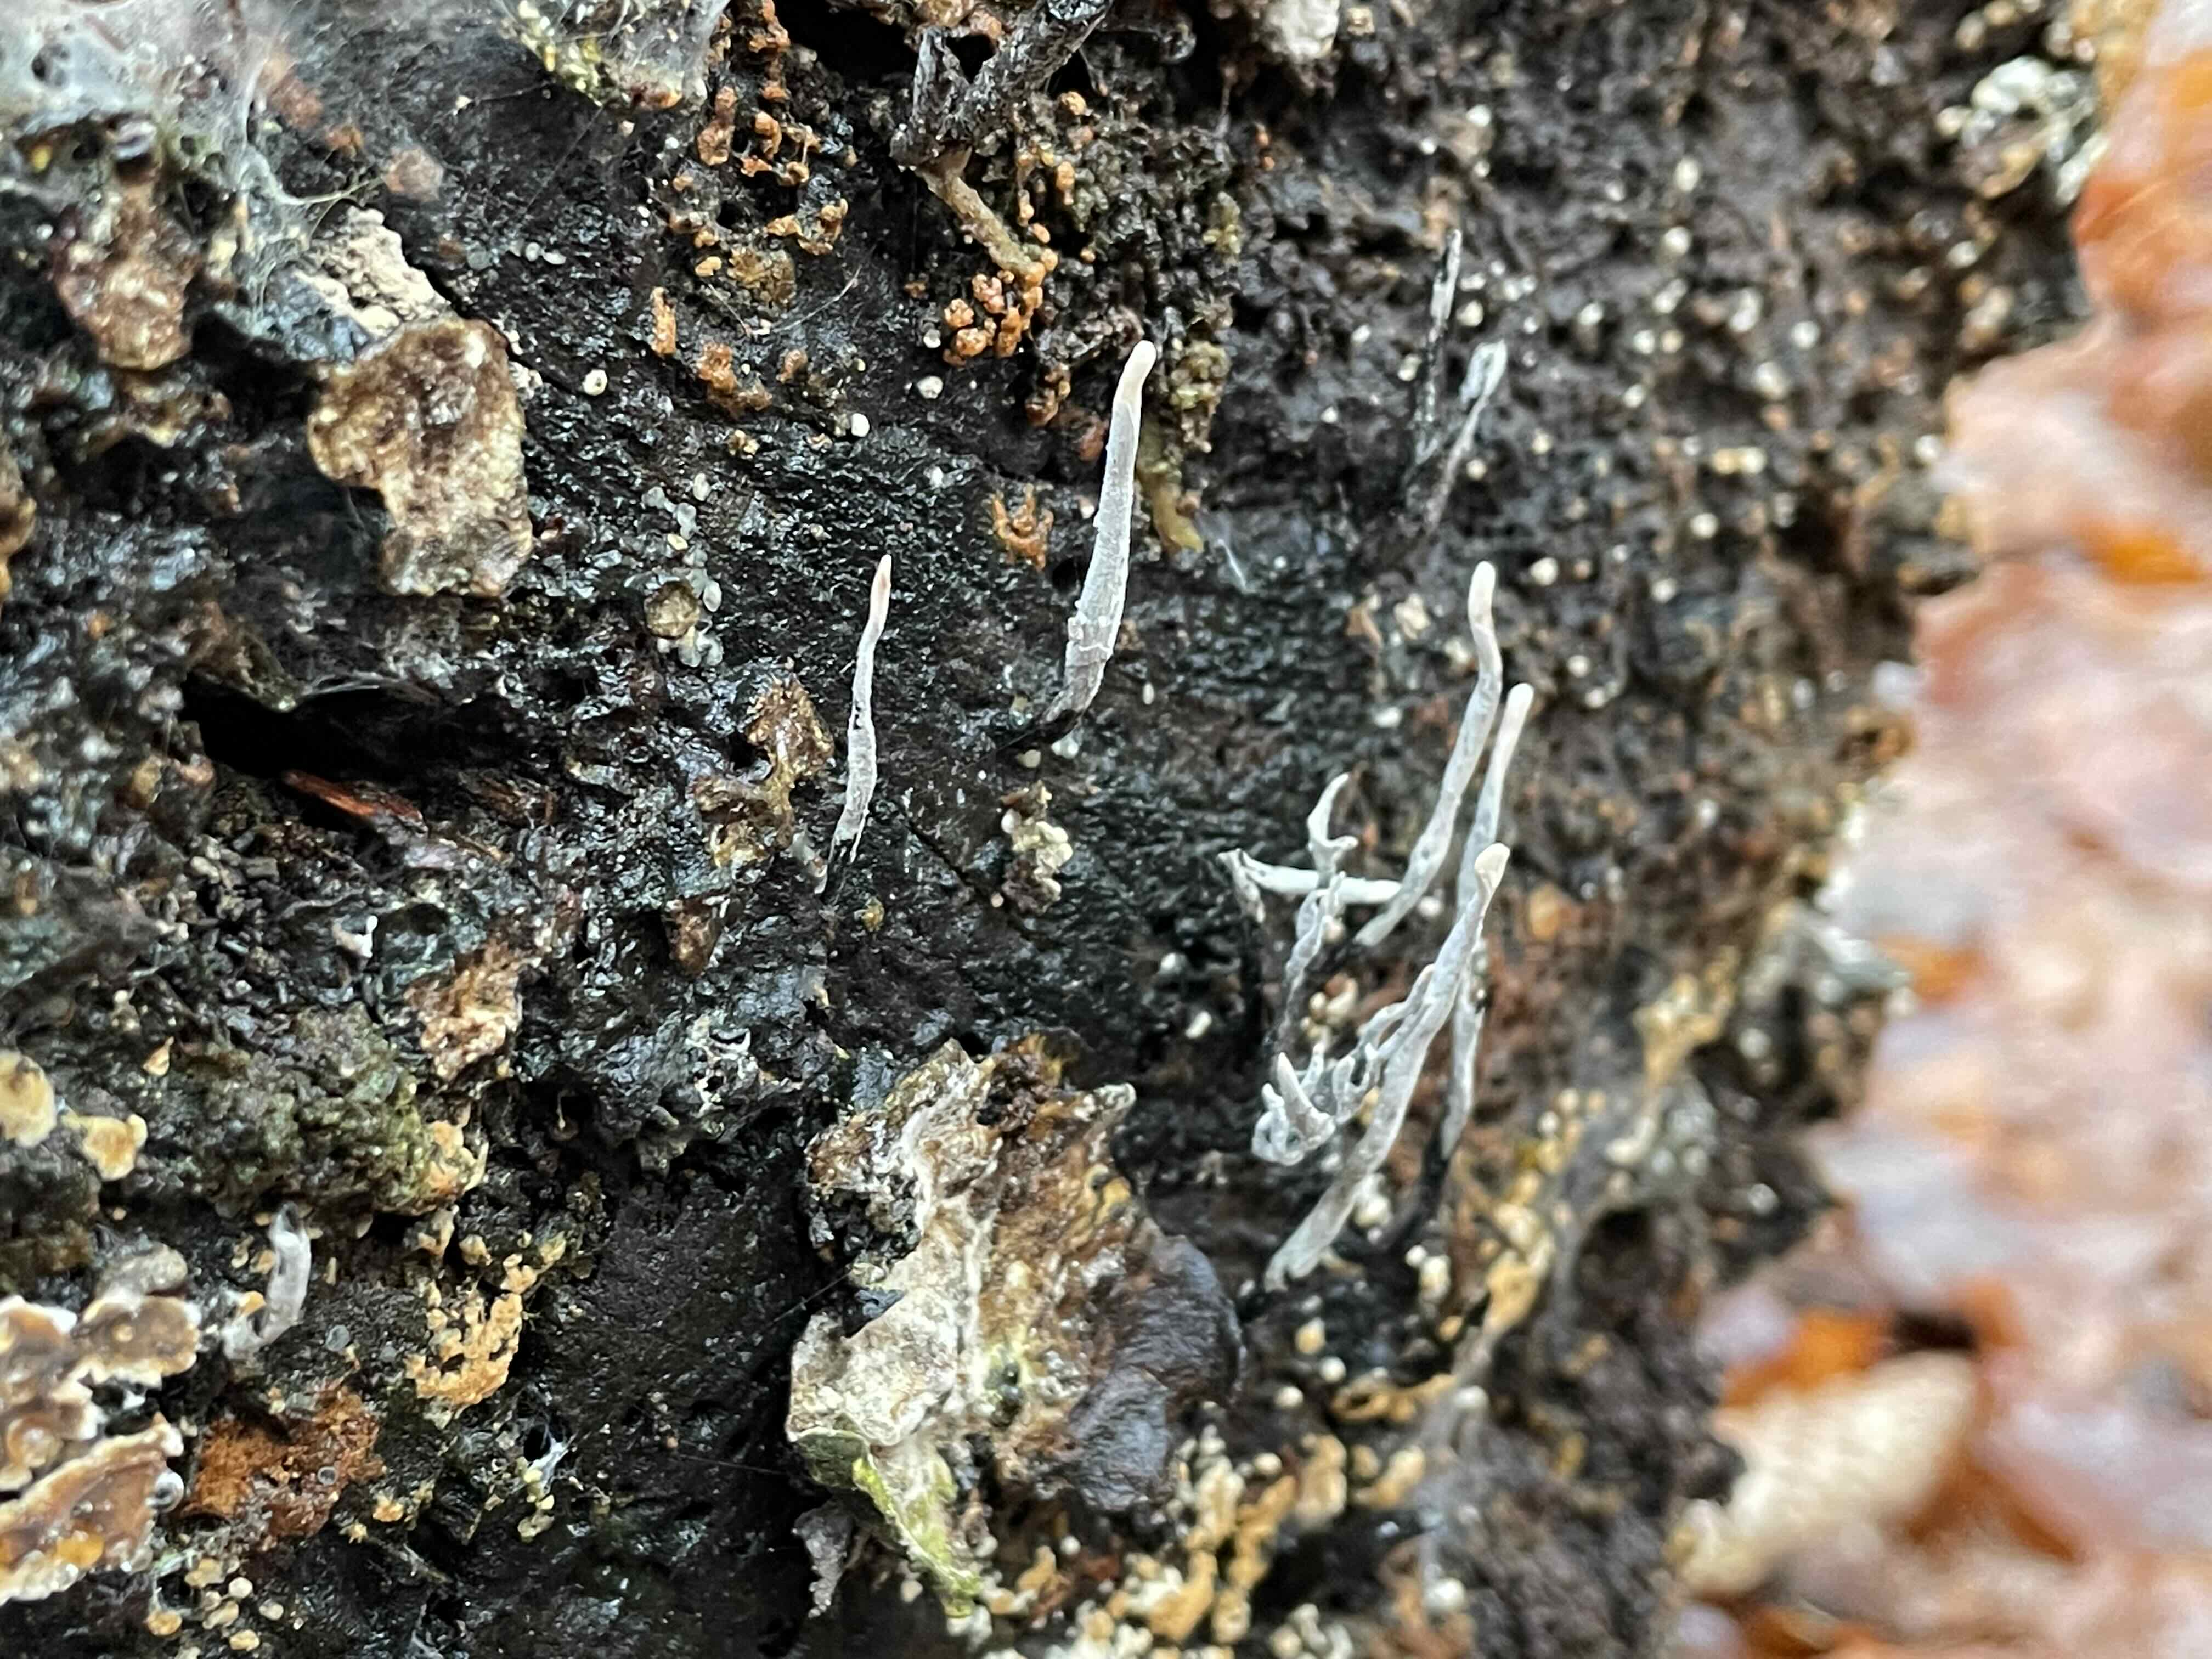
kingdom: Fungi
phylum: Ascomycota
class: Sordariomycetes
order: Xylariales
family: Xylariaceae
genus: Xylaria
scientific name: Xylaria hypoxylon
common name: grenet stødsvamp
